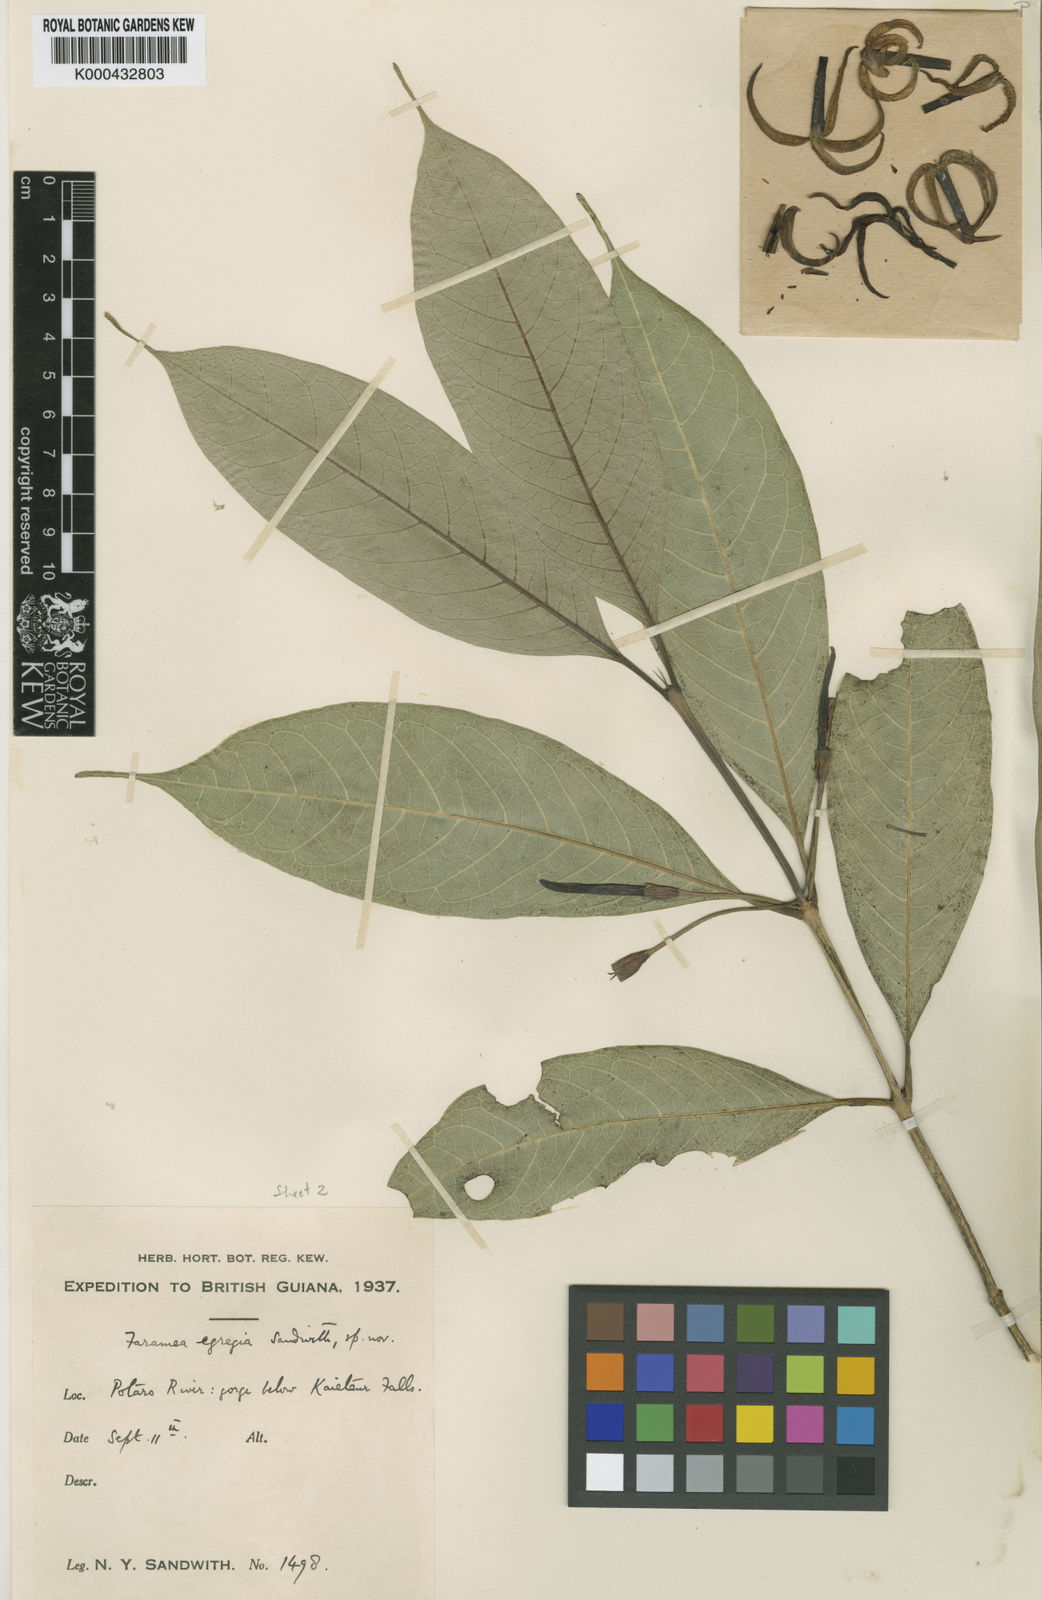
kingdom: Plantae
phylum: Tracheophyta
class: Magnoliopsida
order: Gentianales
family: Rubiaceae
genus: Faramea
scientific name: Faramea egregia
